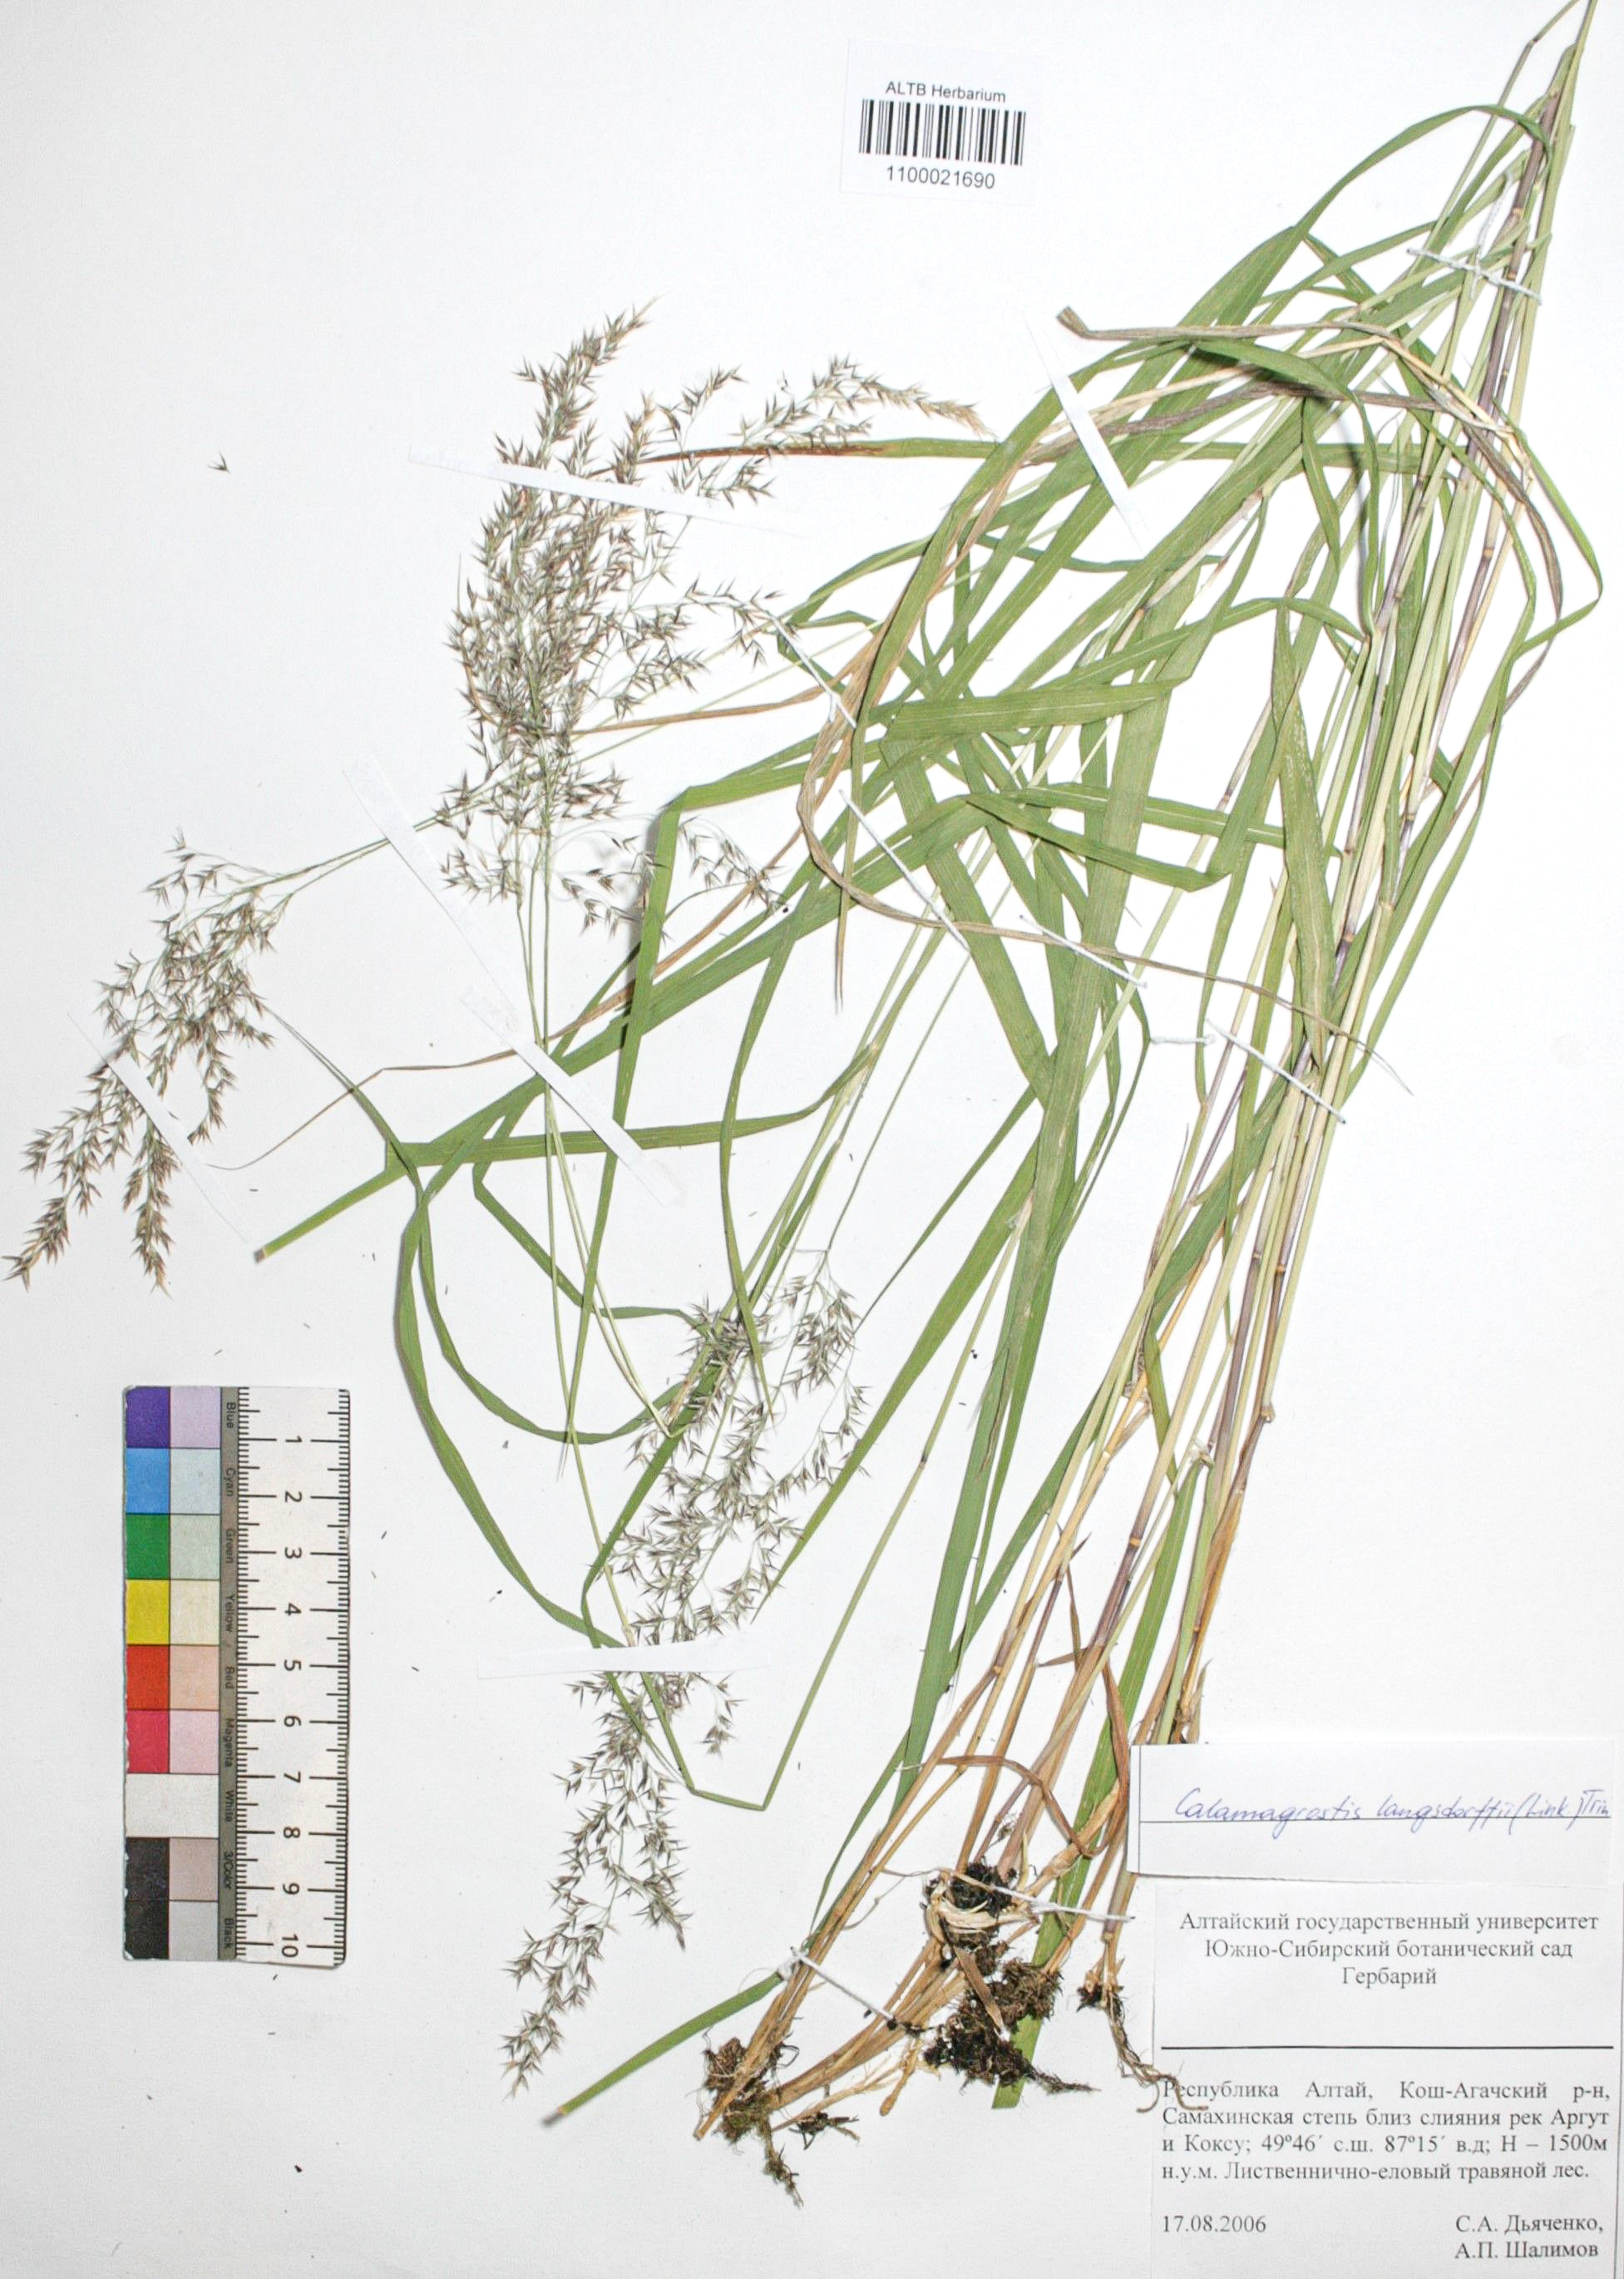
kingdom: Plantae
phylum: Tracheophyta
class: Liliopsida
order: Poales
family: Poaceae
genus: Calamagrostis
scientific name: Calamagrostis purpurea
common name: Scandinavian small-reed
